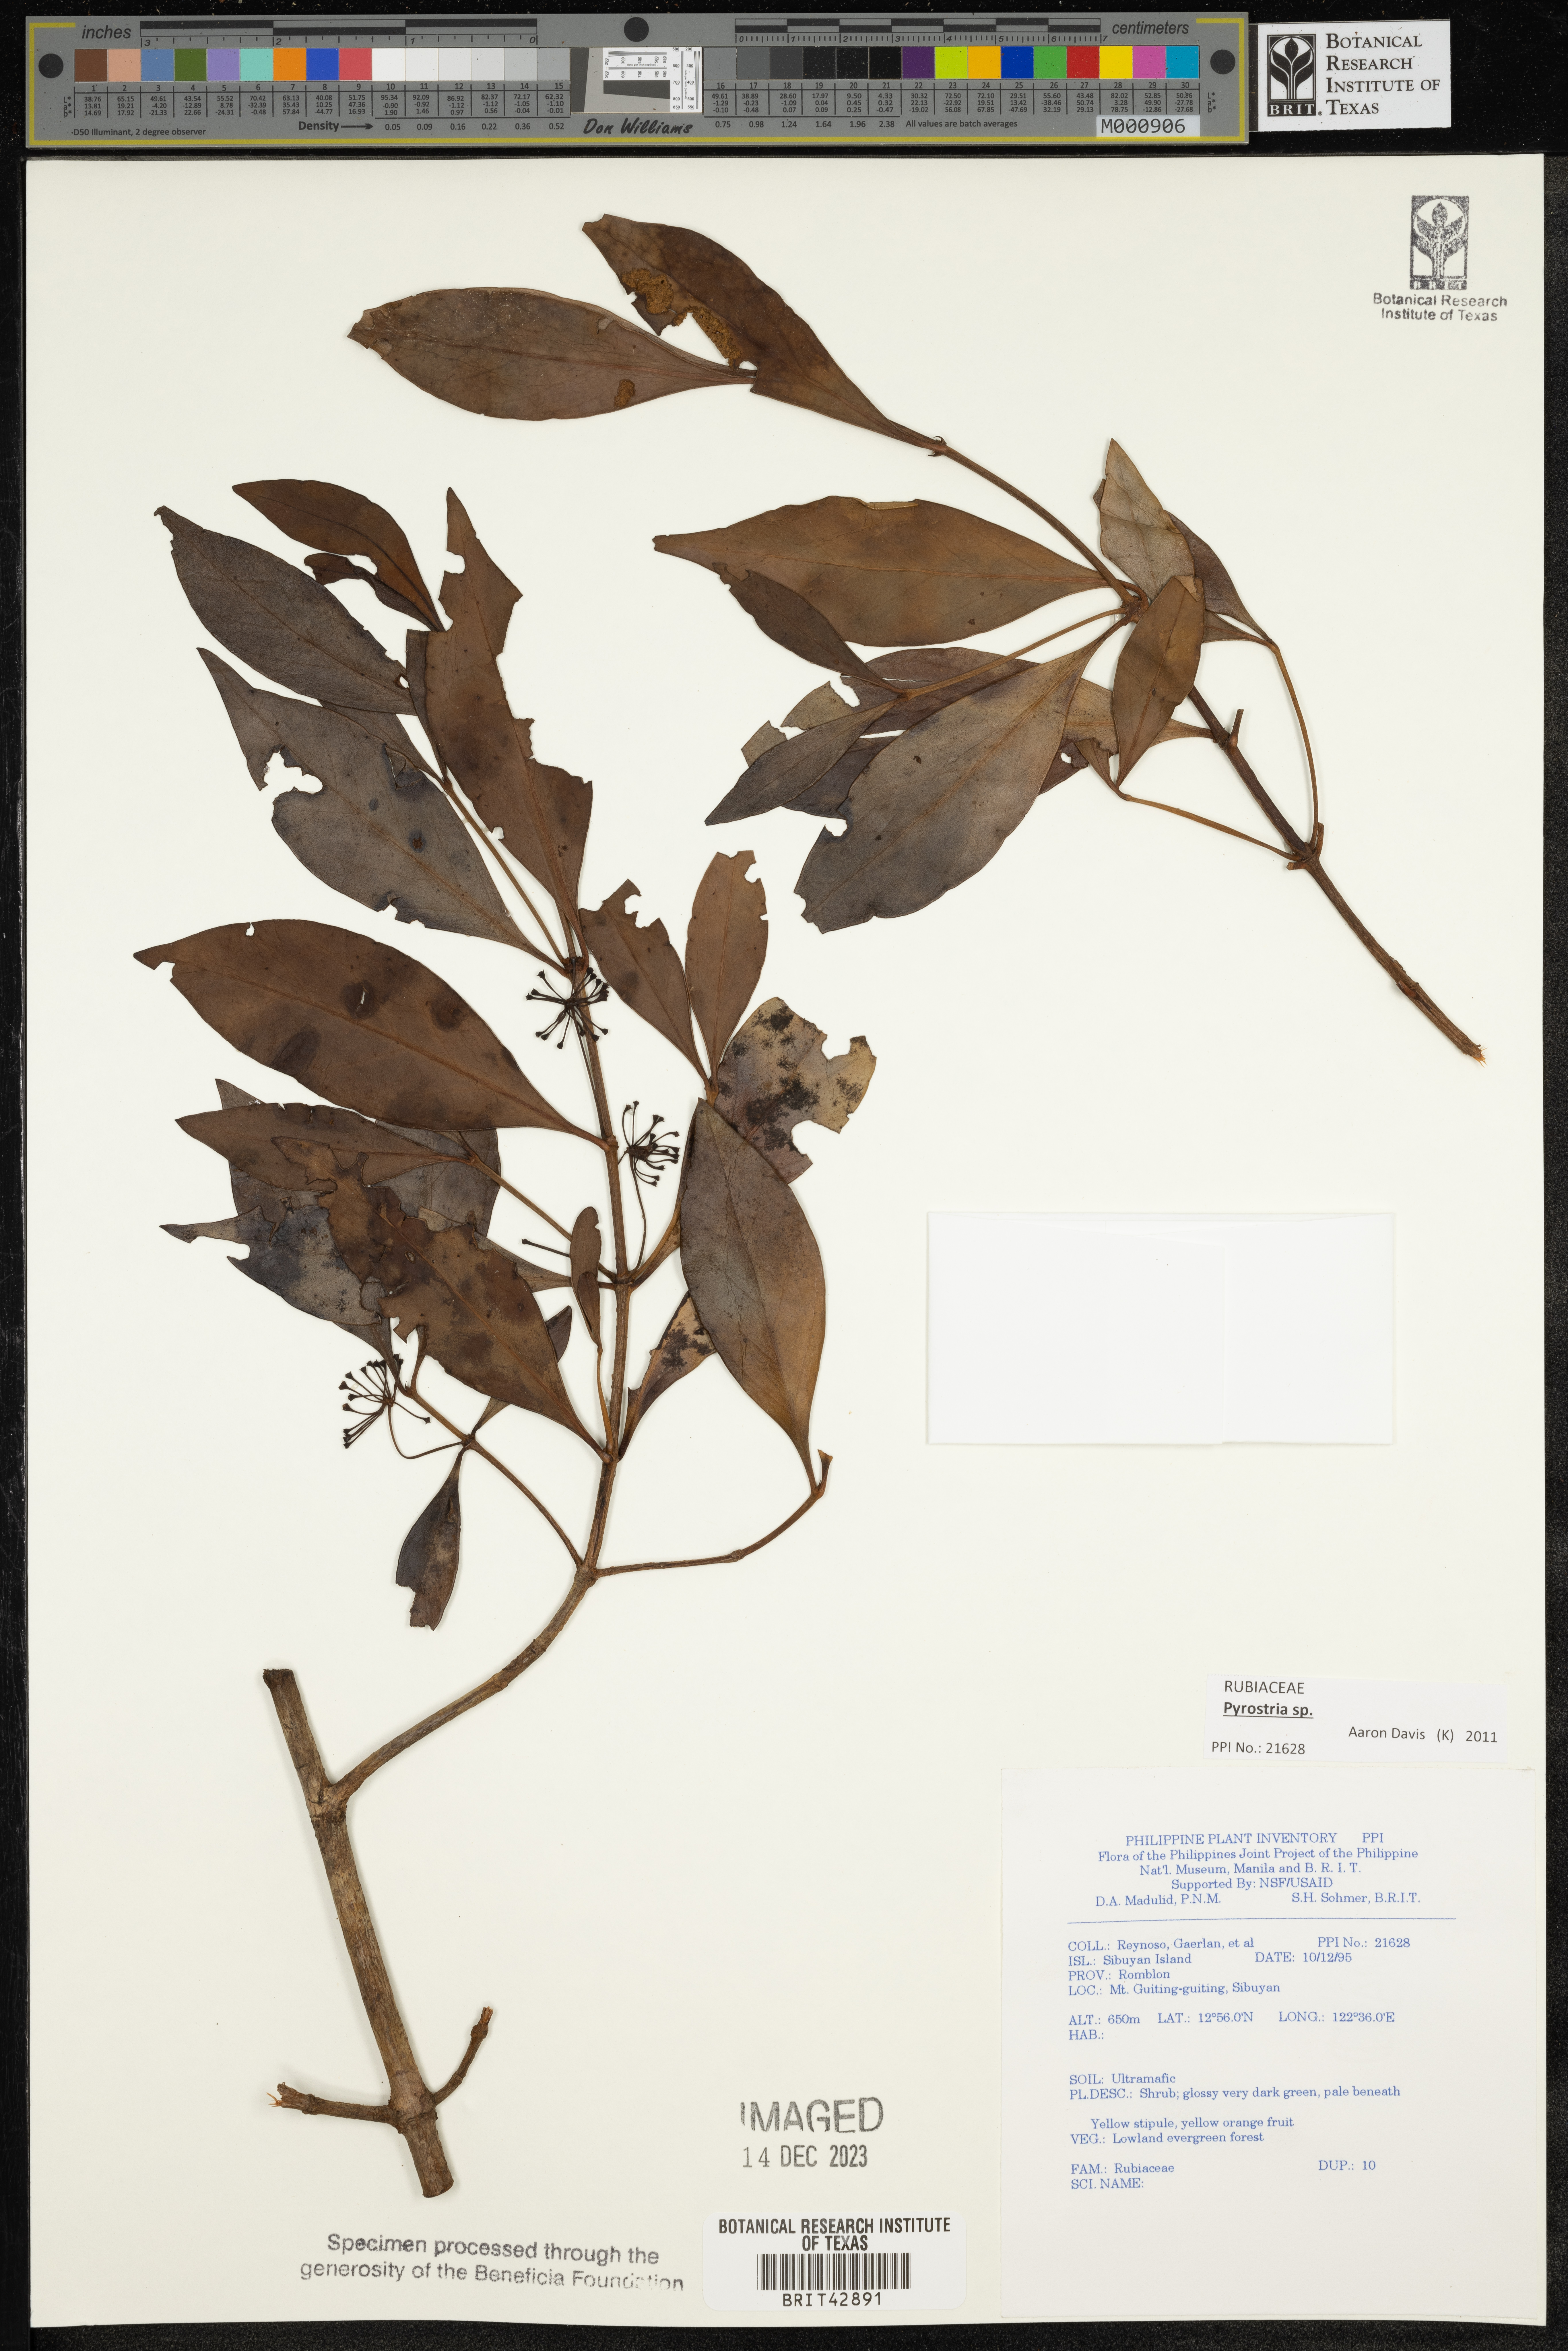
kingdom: Plantae
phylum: Tracheophyta
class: Magnoliopsida
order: Gentianales
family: Rubiaceae
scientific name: Rubiaceae
